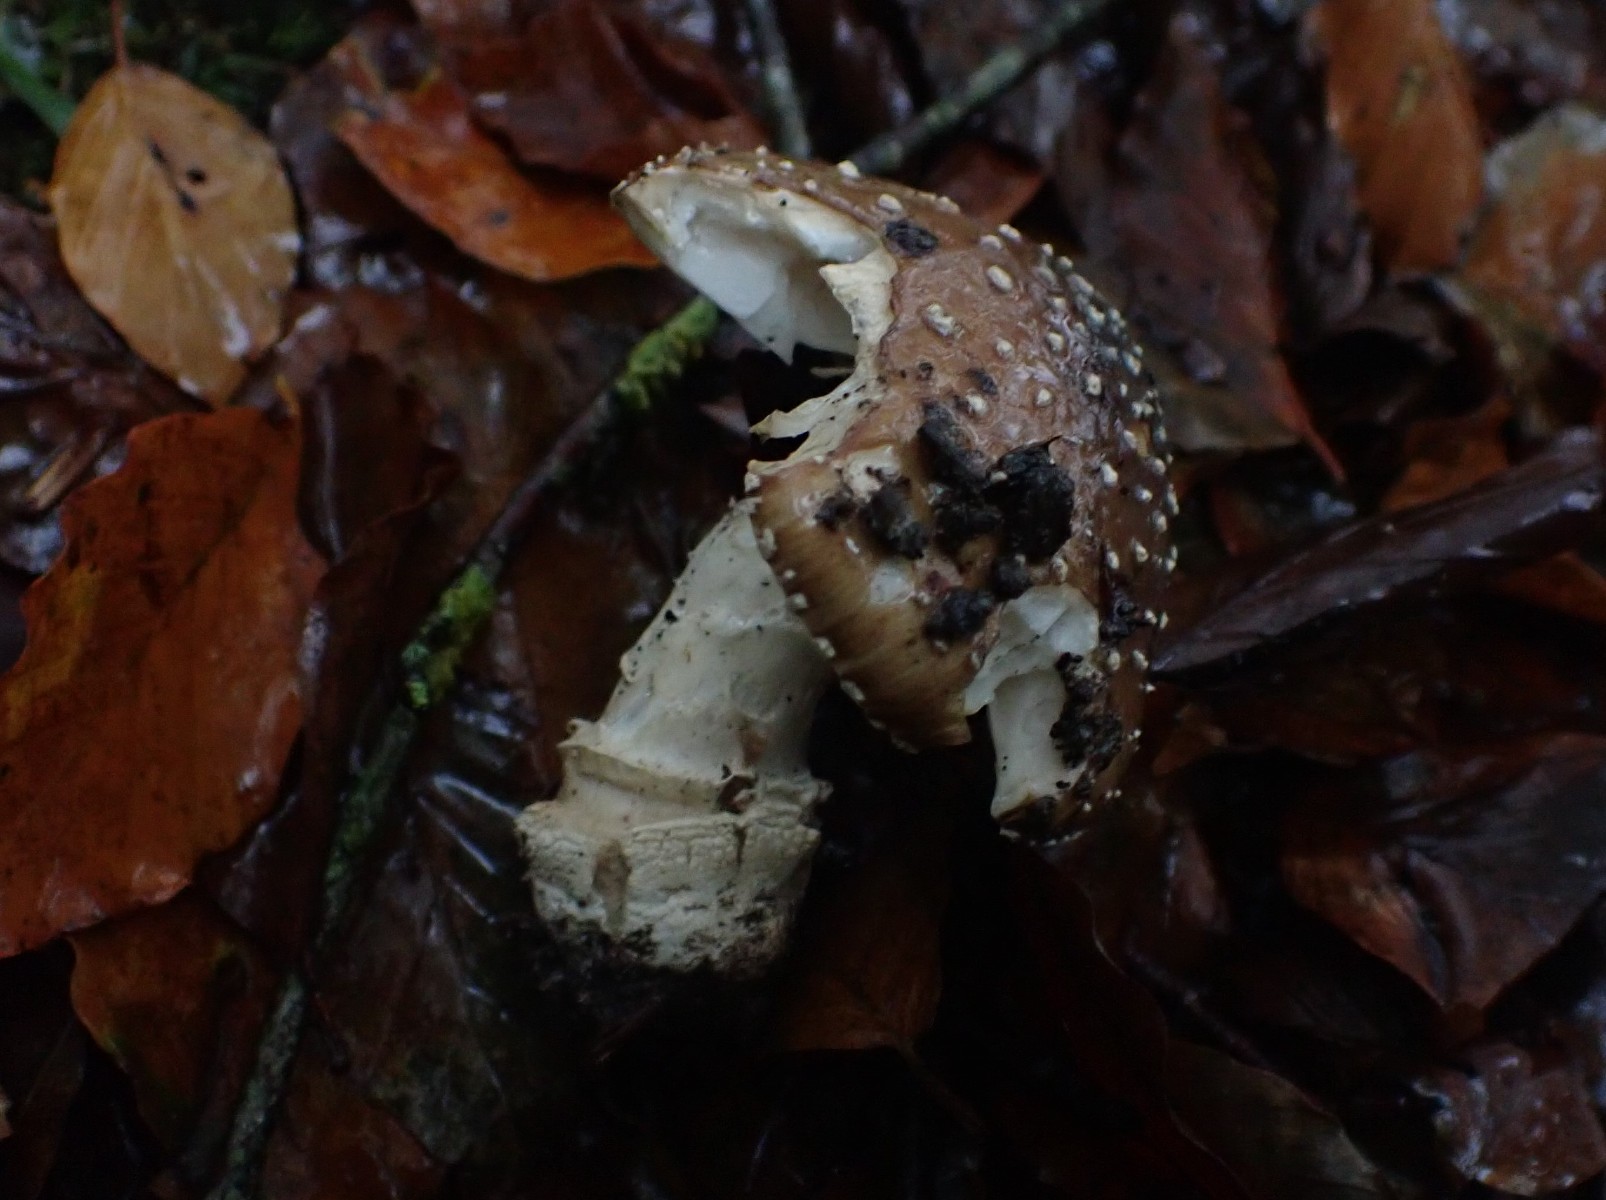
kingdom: Fungi
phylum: Basidiomycota
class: Agaricomycetes
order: Agaricales
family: Amanitaceae
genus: Amanita
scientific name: Amanita pantherina
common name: panter-fluesvamp
